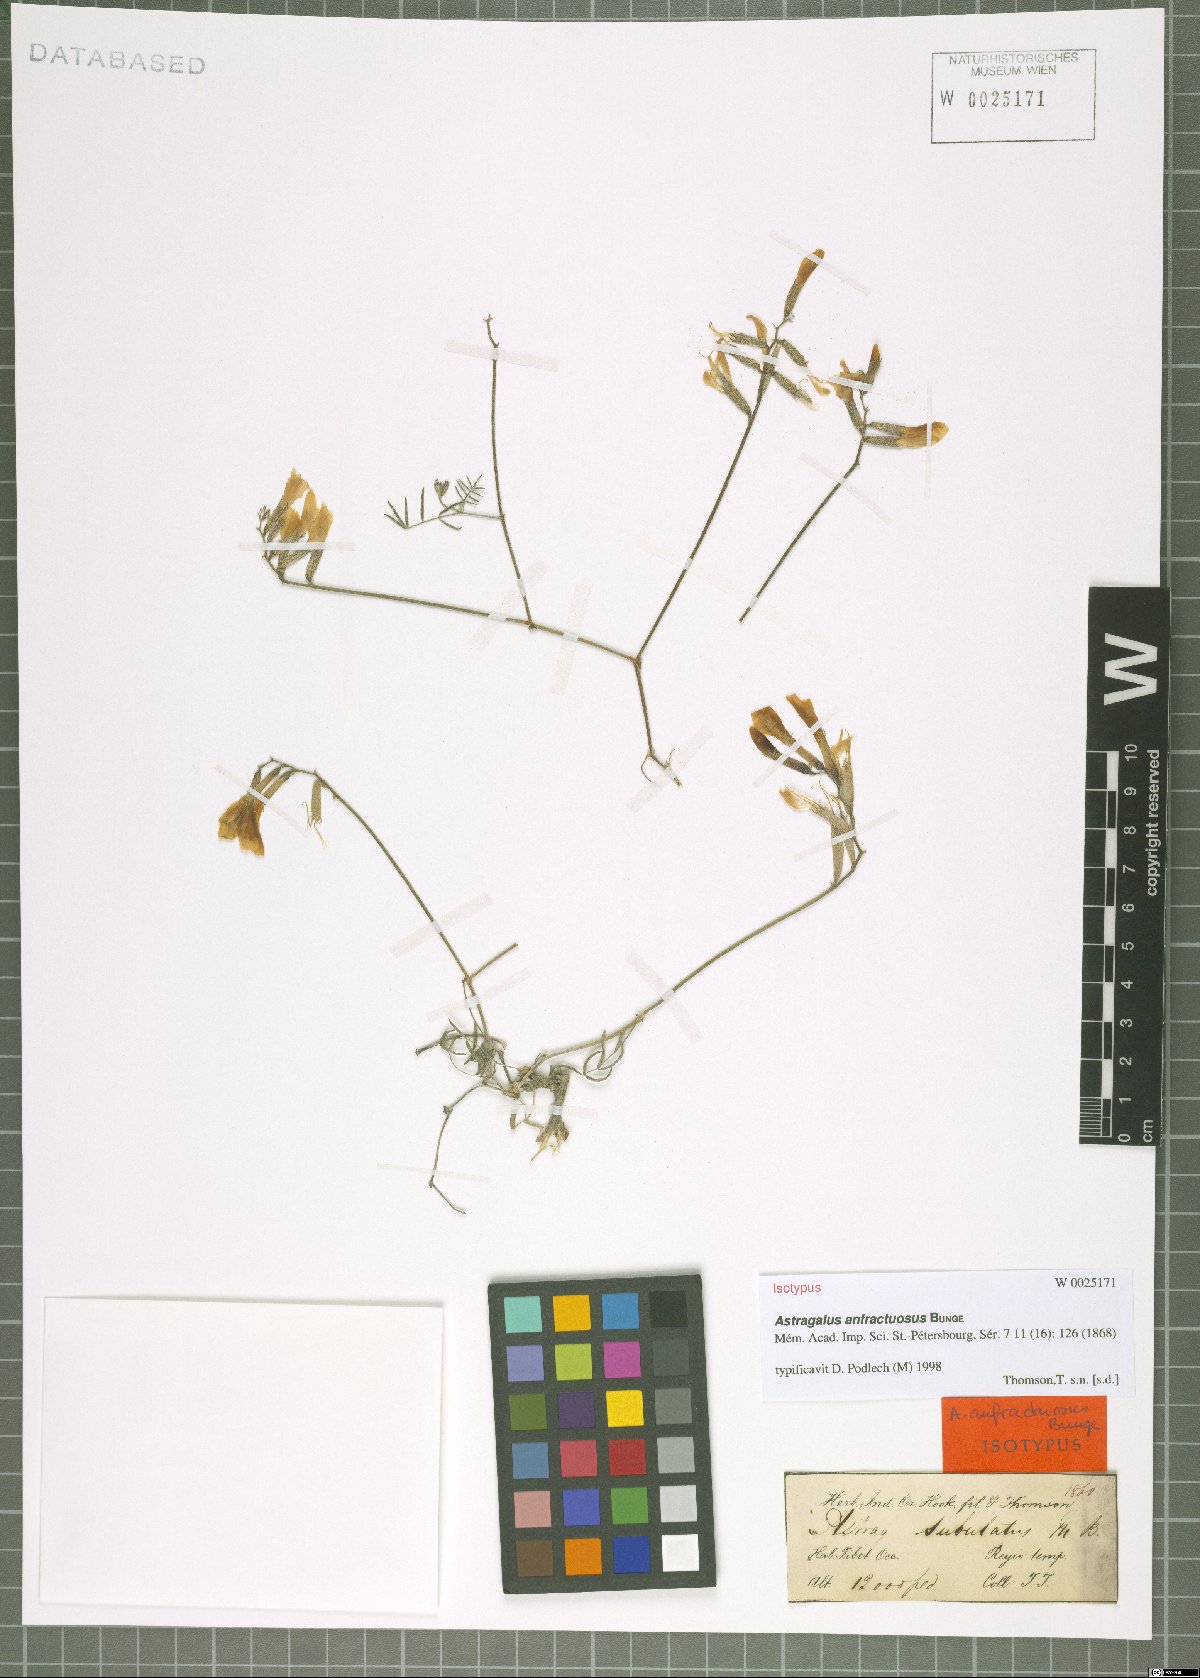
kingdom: Plantae
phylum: Tracheophyta
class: Magnoliopsida
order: Fabales
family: Fabaceae
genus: Astragalus
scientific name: Astragalus anfractuosus
